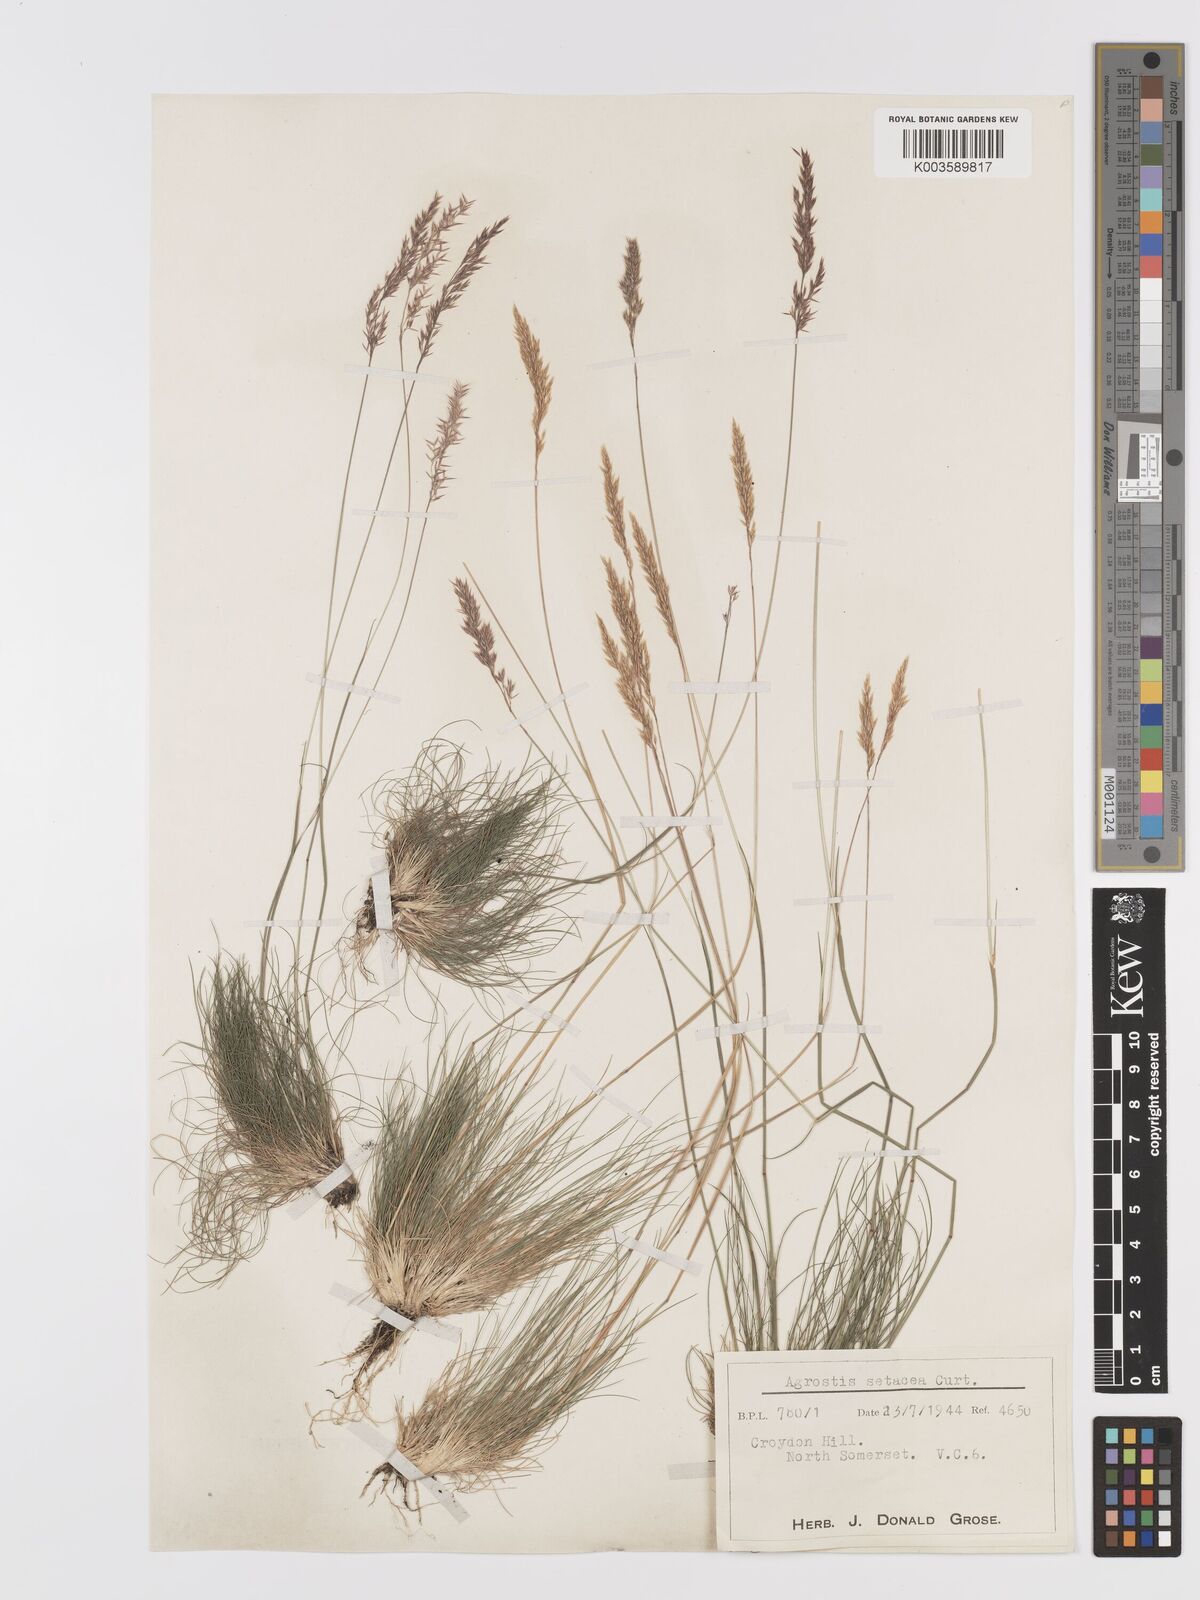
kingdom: Plantae
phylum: Tracheophyta
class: Liliopsida
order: Poales
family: Poaceae
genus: Alpagrostis
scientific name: Alpagrostis setacea
